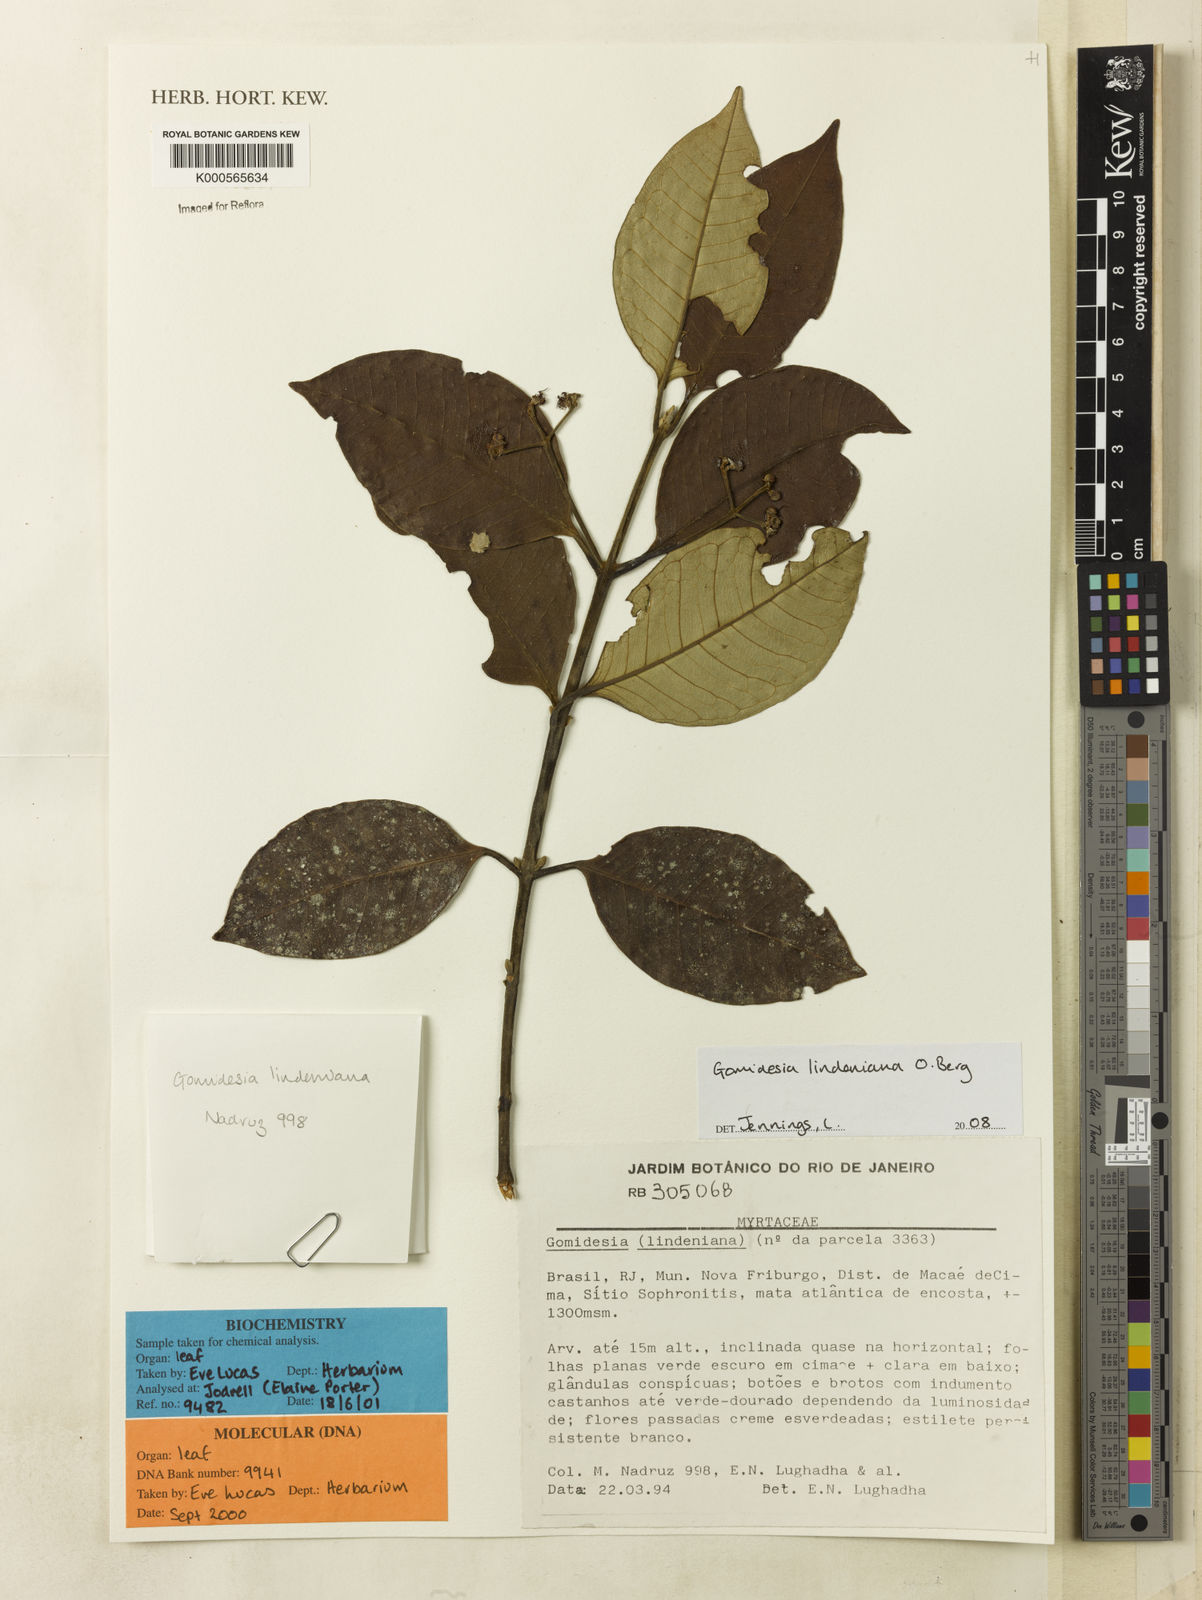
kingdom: Plantae
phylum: Tracheophyta
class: Magnoliopsida
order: Myrtales
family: Myrtaceae
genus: Myrcia
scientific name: Myrcia fenzliana
